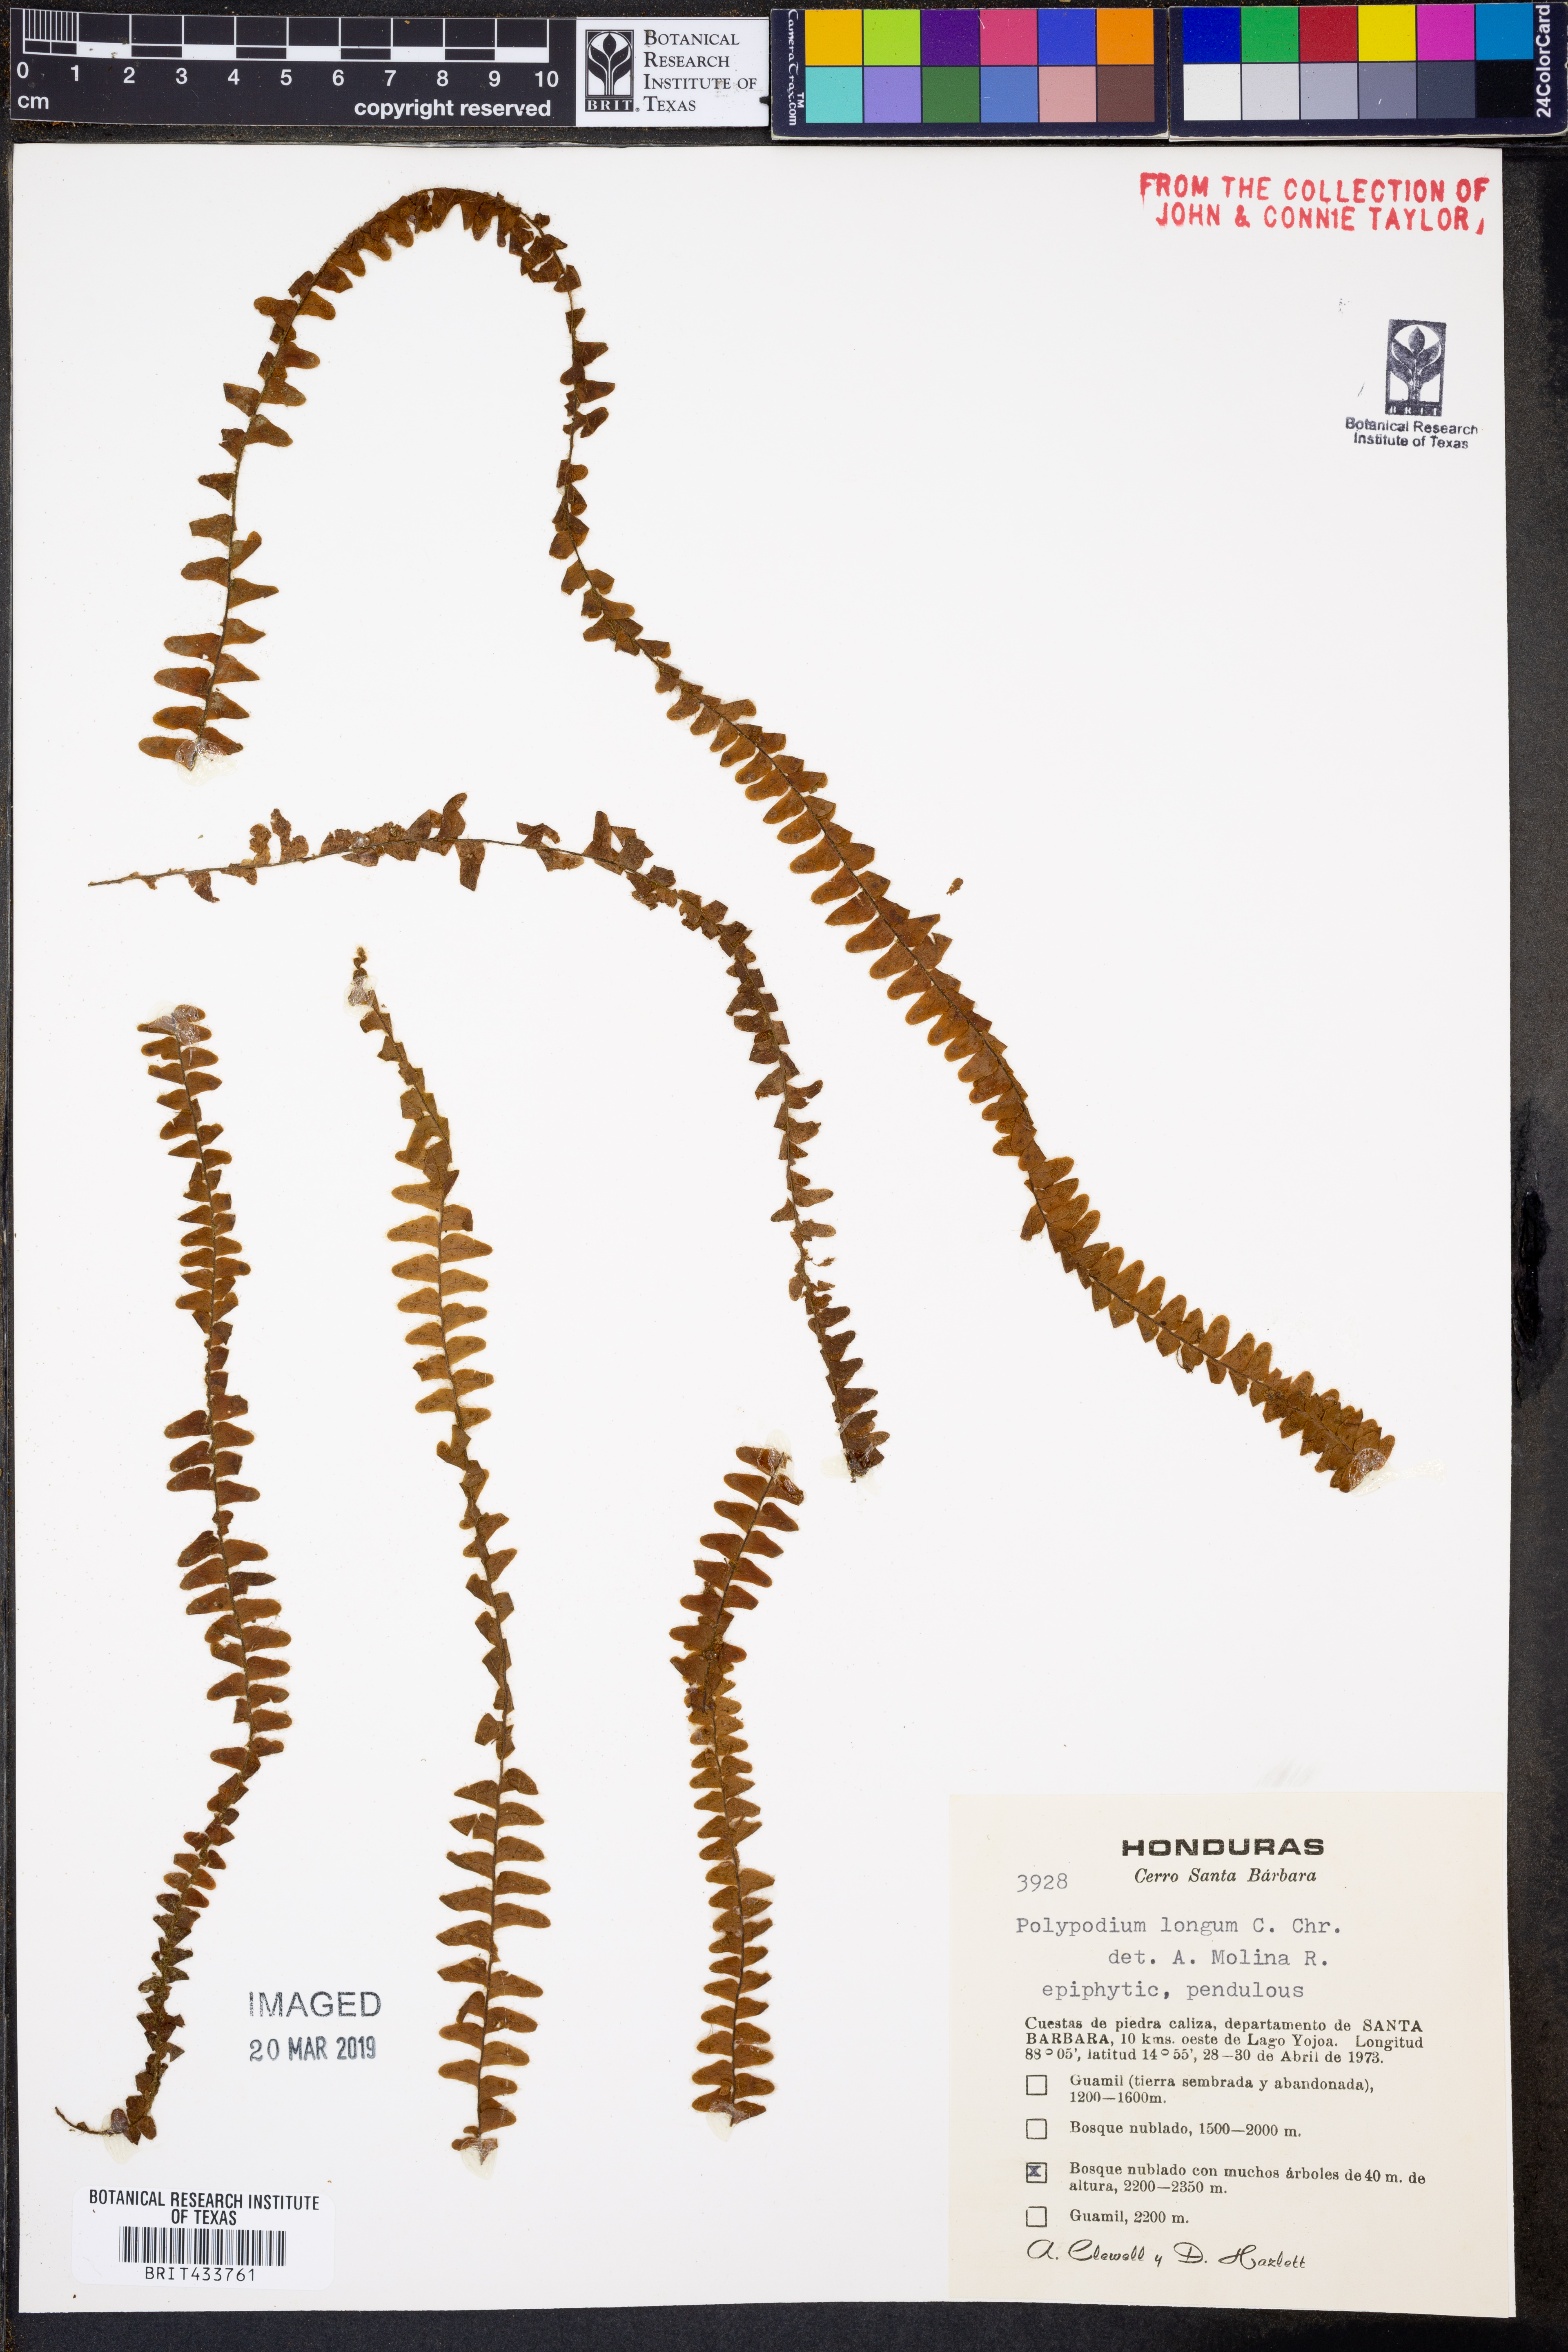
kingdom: Plantae
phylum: Tracheophyta
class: Polypodiopsida
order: Polypodiales
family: Polypodiaceae
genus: Alansmia
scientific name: Alansmia longa
